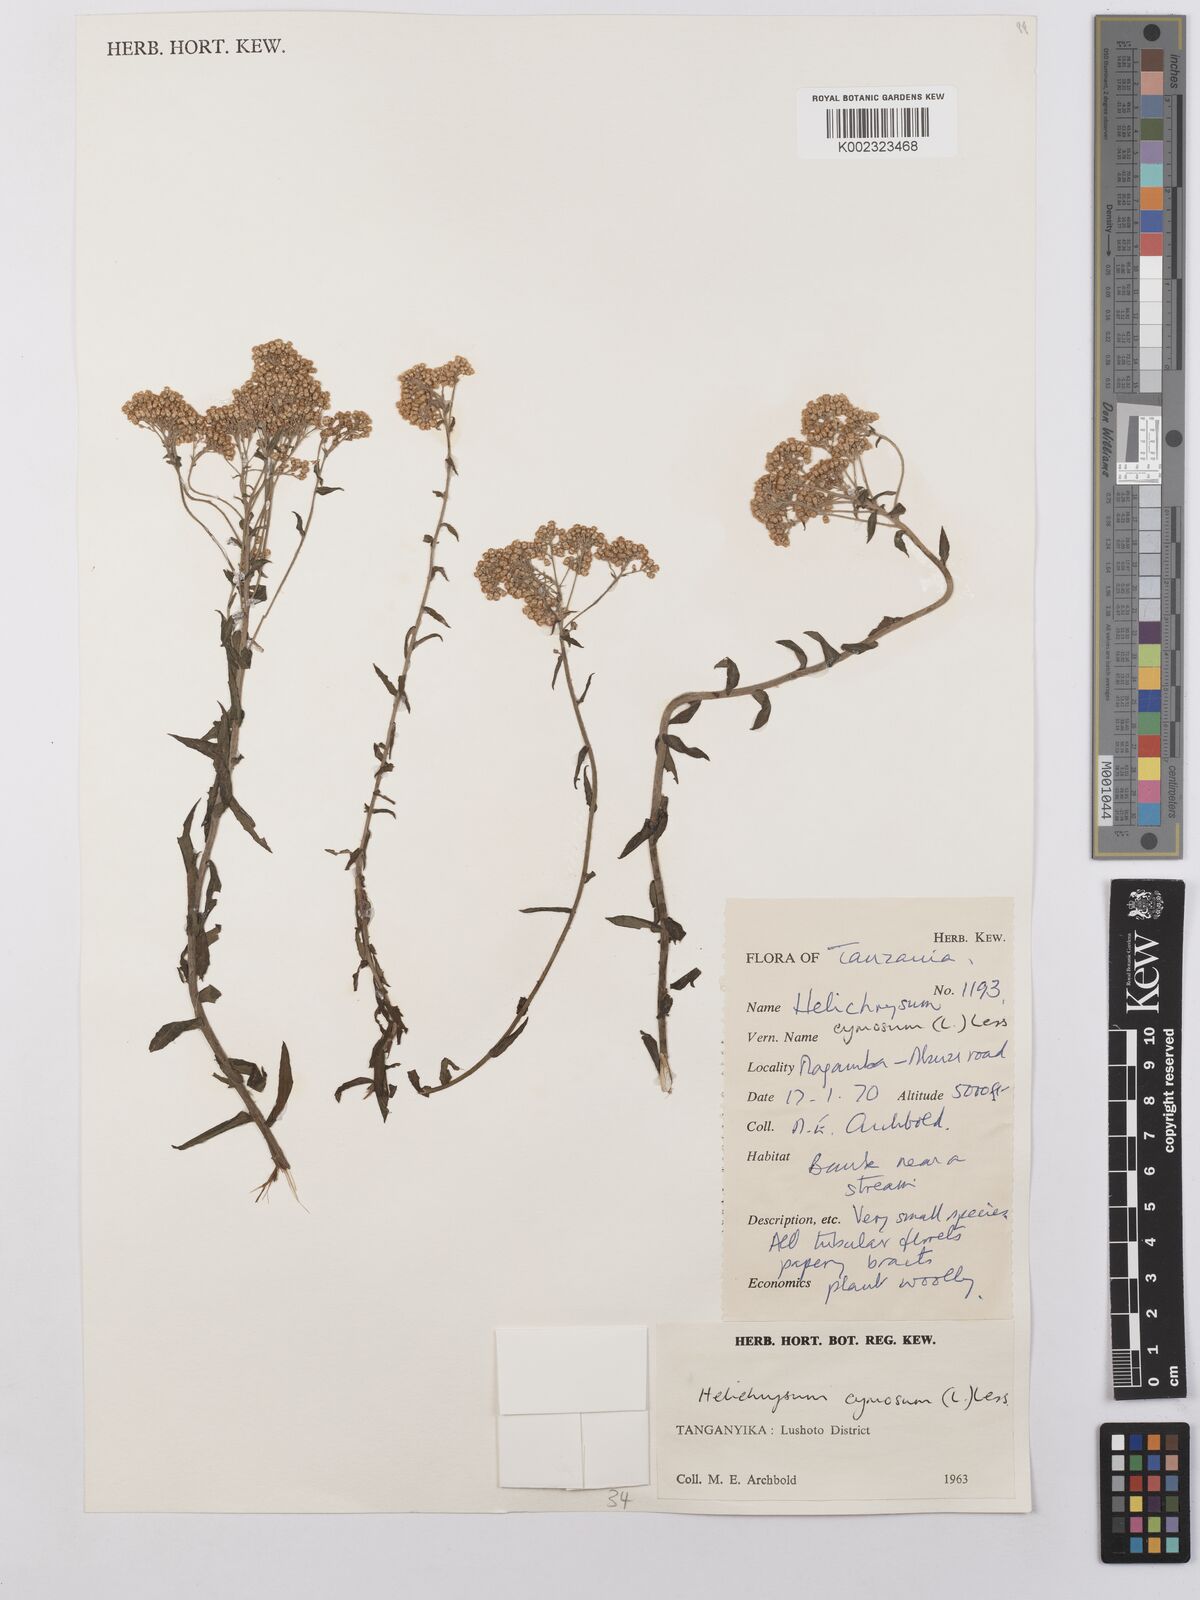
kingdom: Plantae
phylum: Tracheophyta
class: Magnoliopsida
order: Asterales
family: Asteraceae
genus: Helichrysum
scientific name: Helichrysum forskahlii
